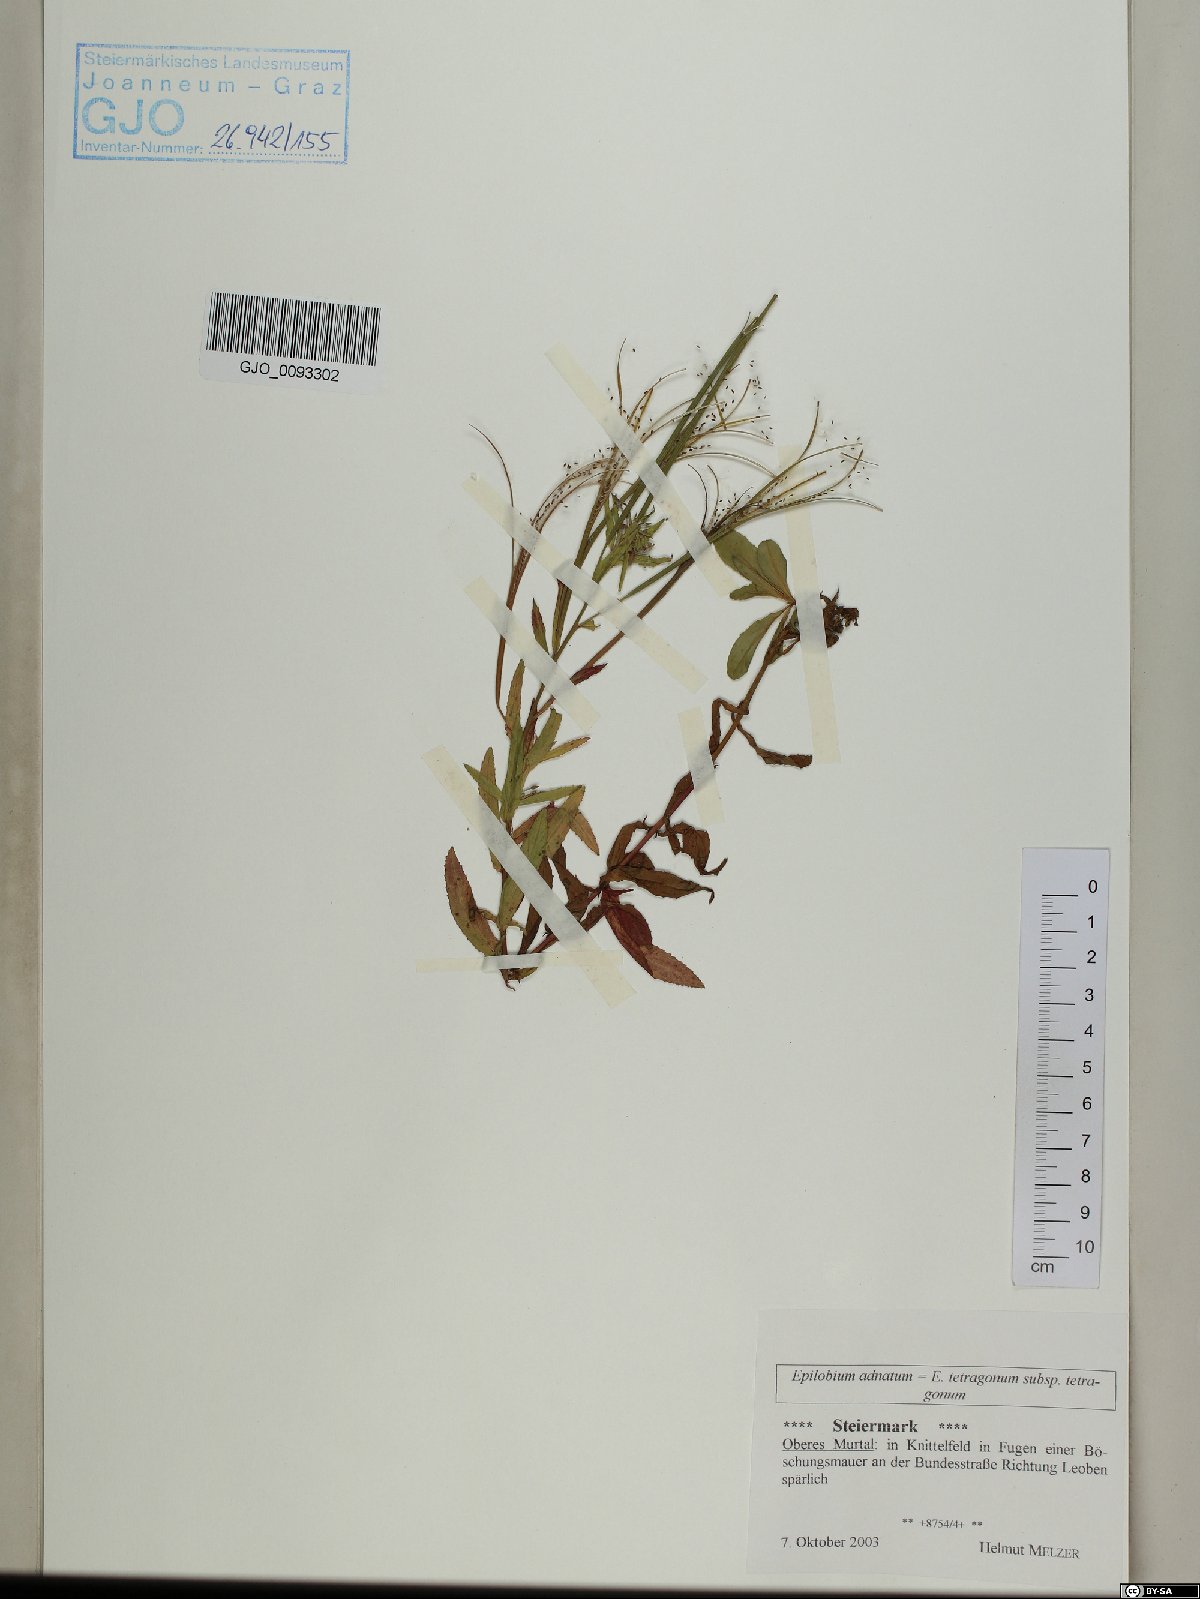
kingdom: Plantae
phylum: Tracheophyta
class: Magnoliopsida
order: Myrtales
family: Onagraceae
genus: Epilobium
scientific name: Epilobium tetragonum
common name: Square-stemmed willowherb
